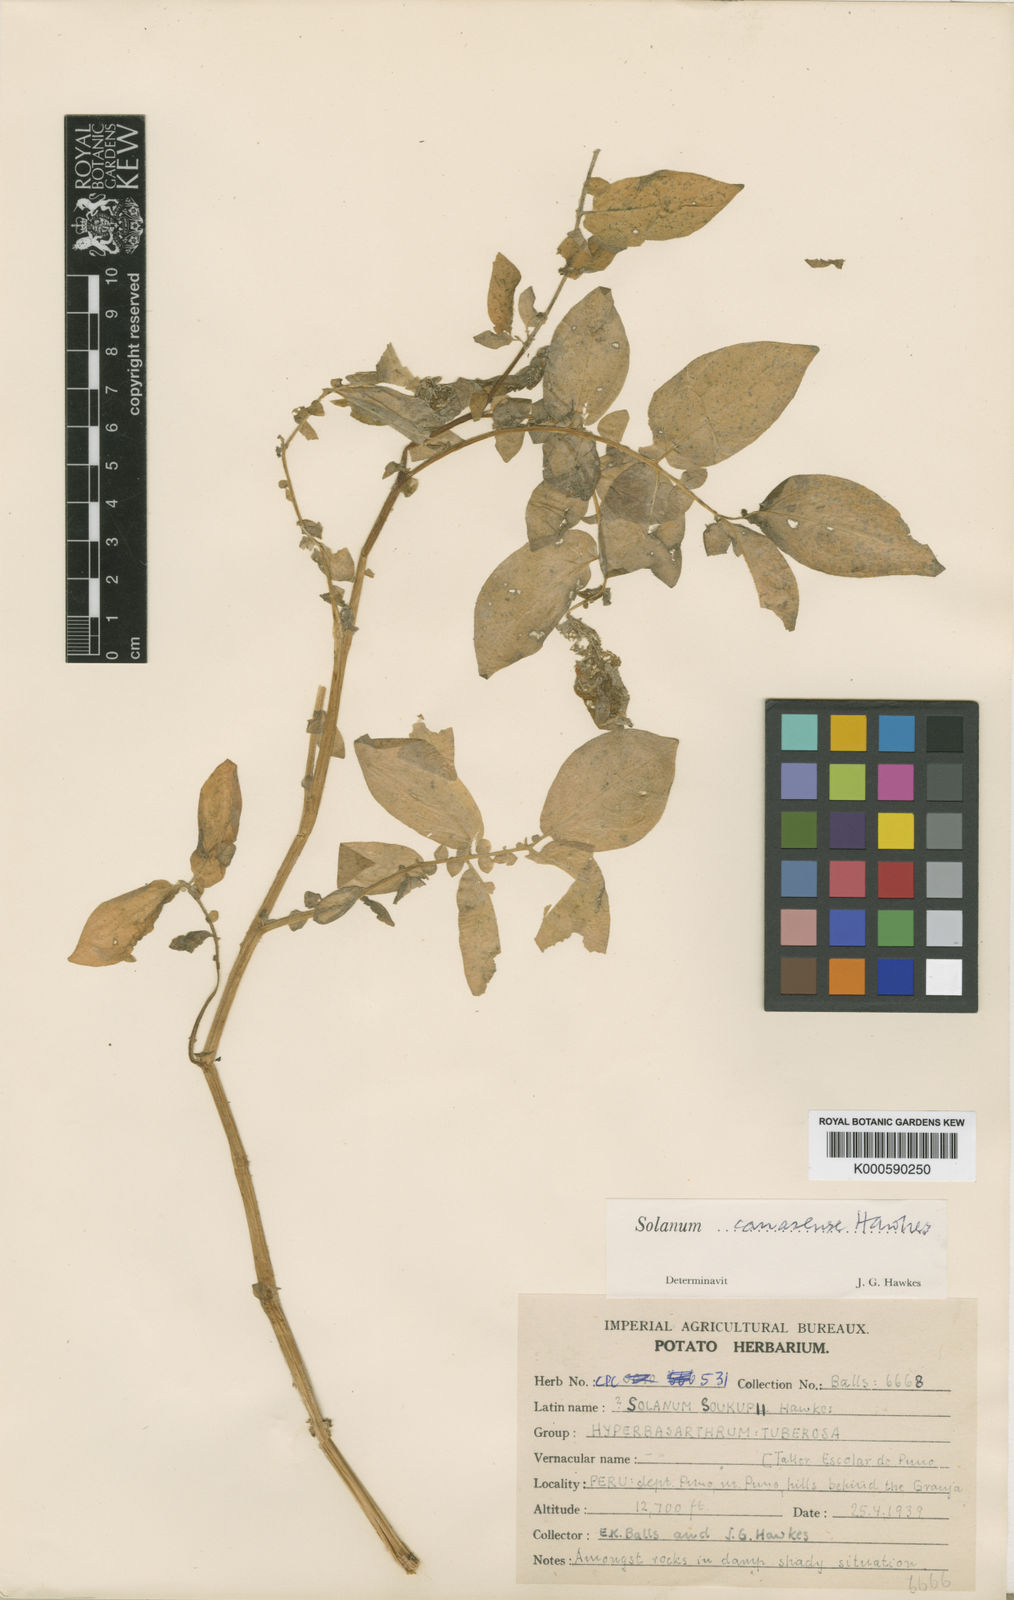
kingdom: Plantae
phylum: Tracheophyta
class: Magnoliopsida
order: Solanales
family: Solanaceae
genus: Solanum
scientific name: Solanum candolleanum
